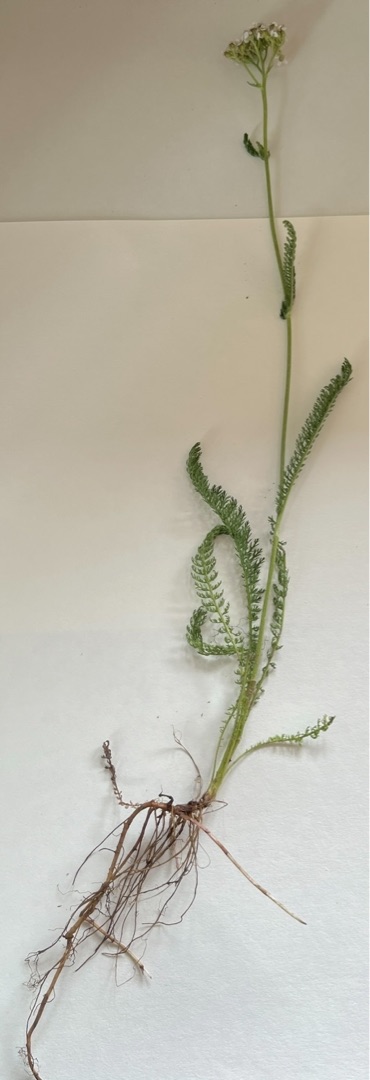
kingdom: Plantae
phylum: Tracheophyta
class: Magnoliopsida
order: Asterales
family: Asteraceae
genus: Achillea
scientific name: Achillea millefolium
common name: Almindelig røllike
